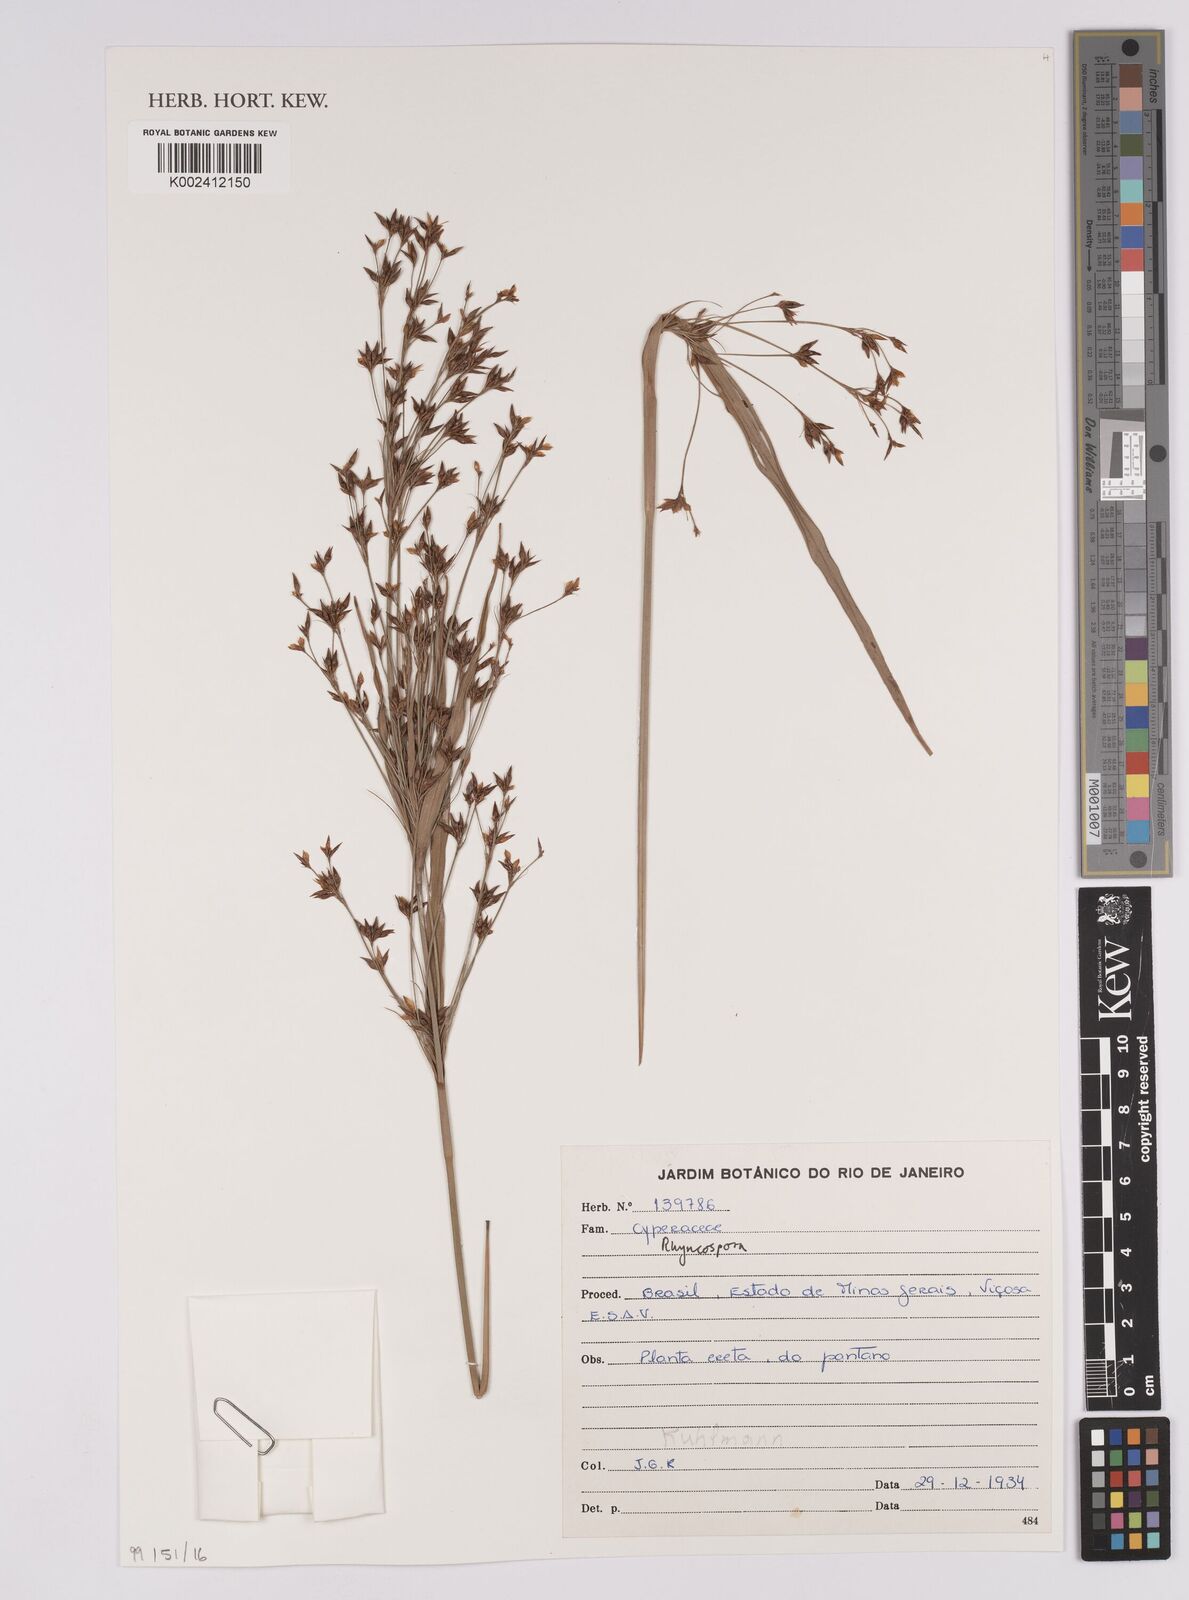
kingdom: Plantae
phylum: Tracheophyta
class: Liliopsida
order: Poales
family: Cyperaceae
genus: Rhynchospora
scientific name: Rhynchospora
